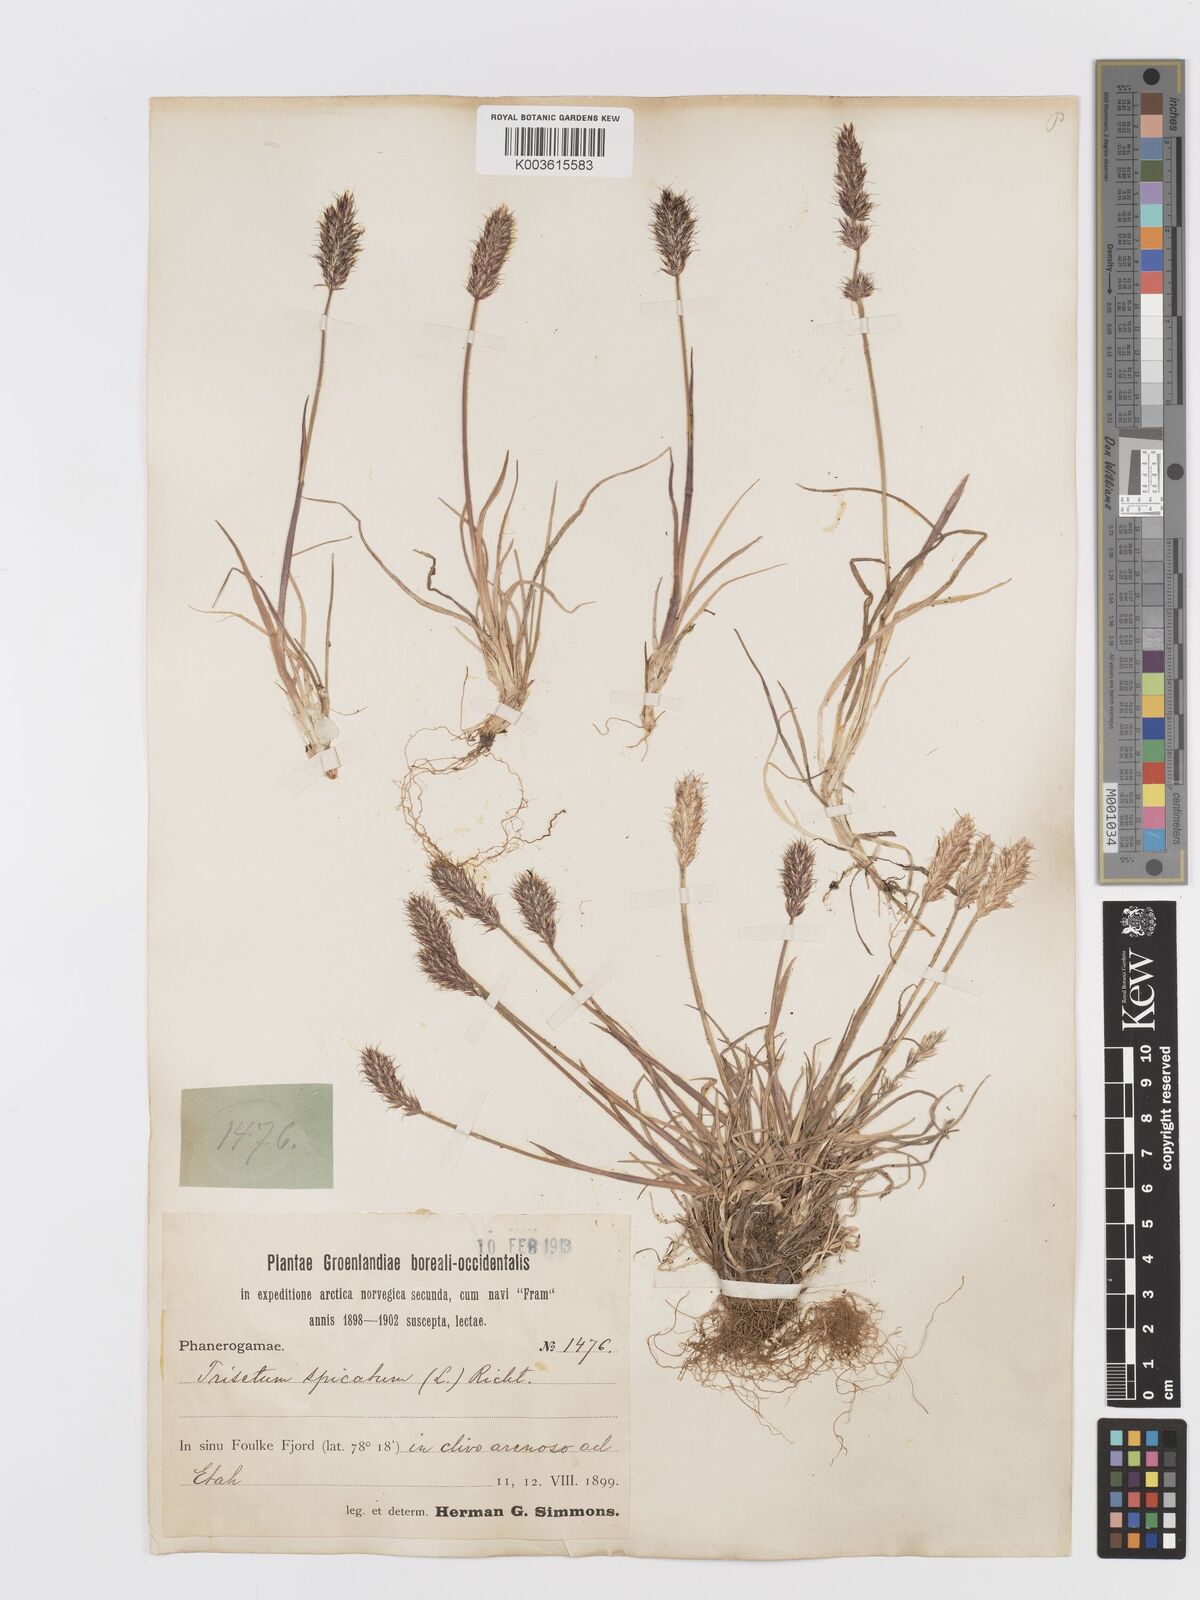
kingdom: Plantae
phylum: Tracheophyta
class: Liliopsida
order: Poales
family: Poaceae
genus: Koeleria
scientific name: Koeleria spicata
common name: Mountain trisetum
